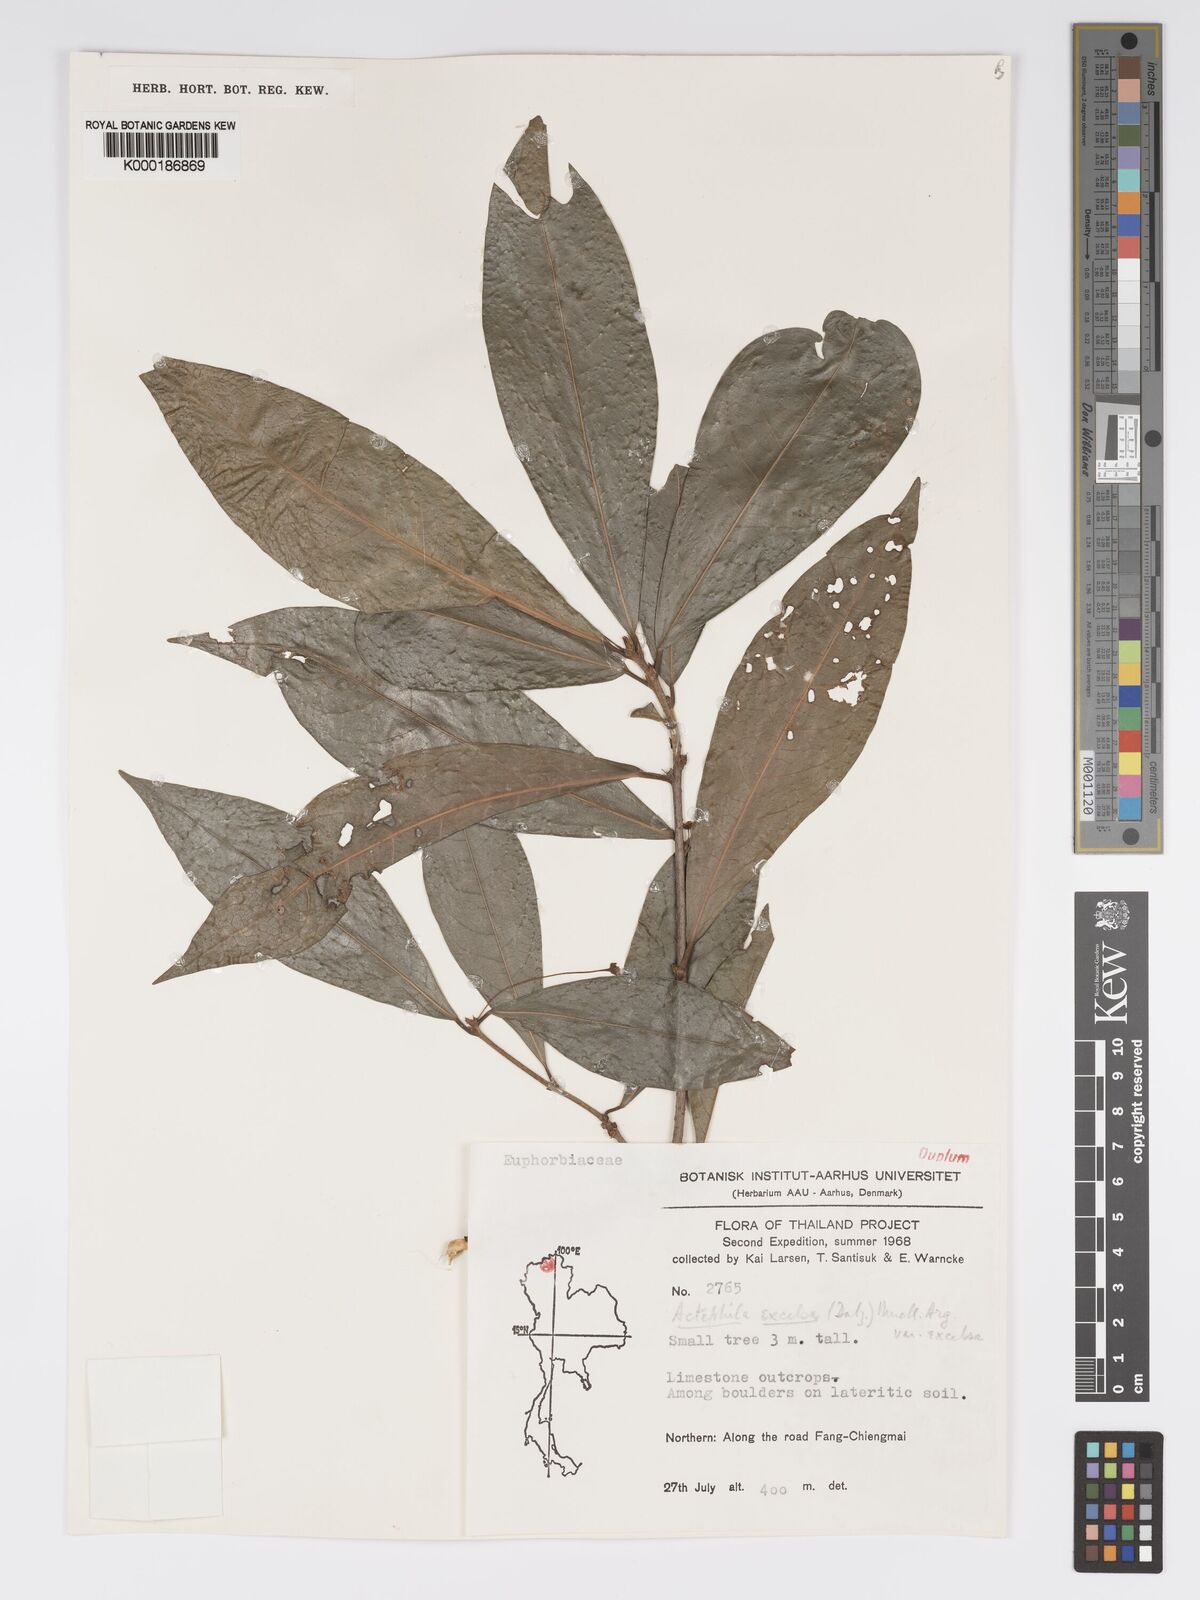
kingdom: Plantae
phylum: Tracheophyta
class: Magnoliopsida
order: Malpighiales
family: Phyllanthaceae
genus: Actephila
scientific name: Actephila subsessilis
